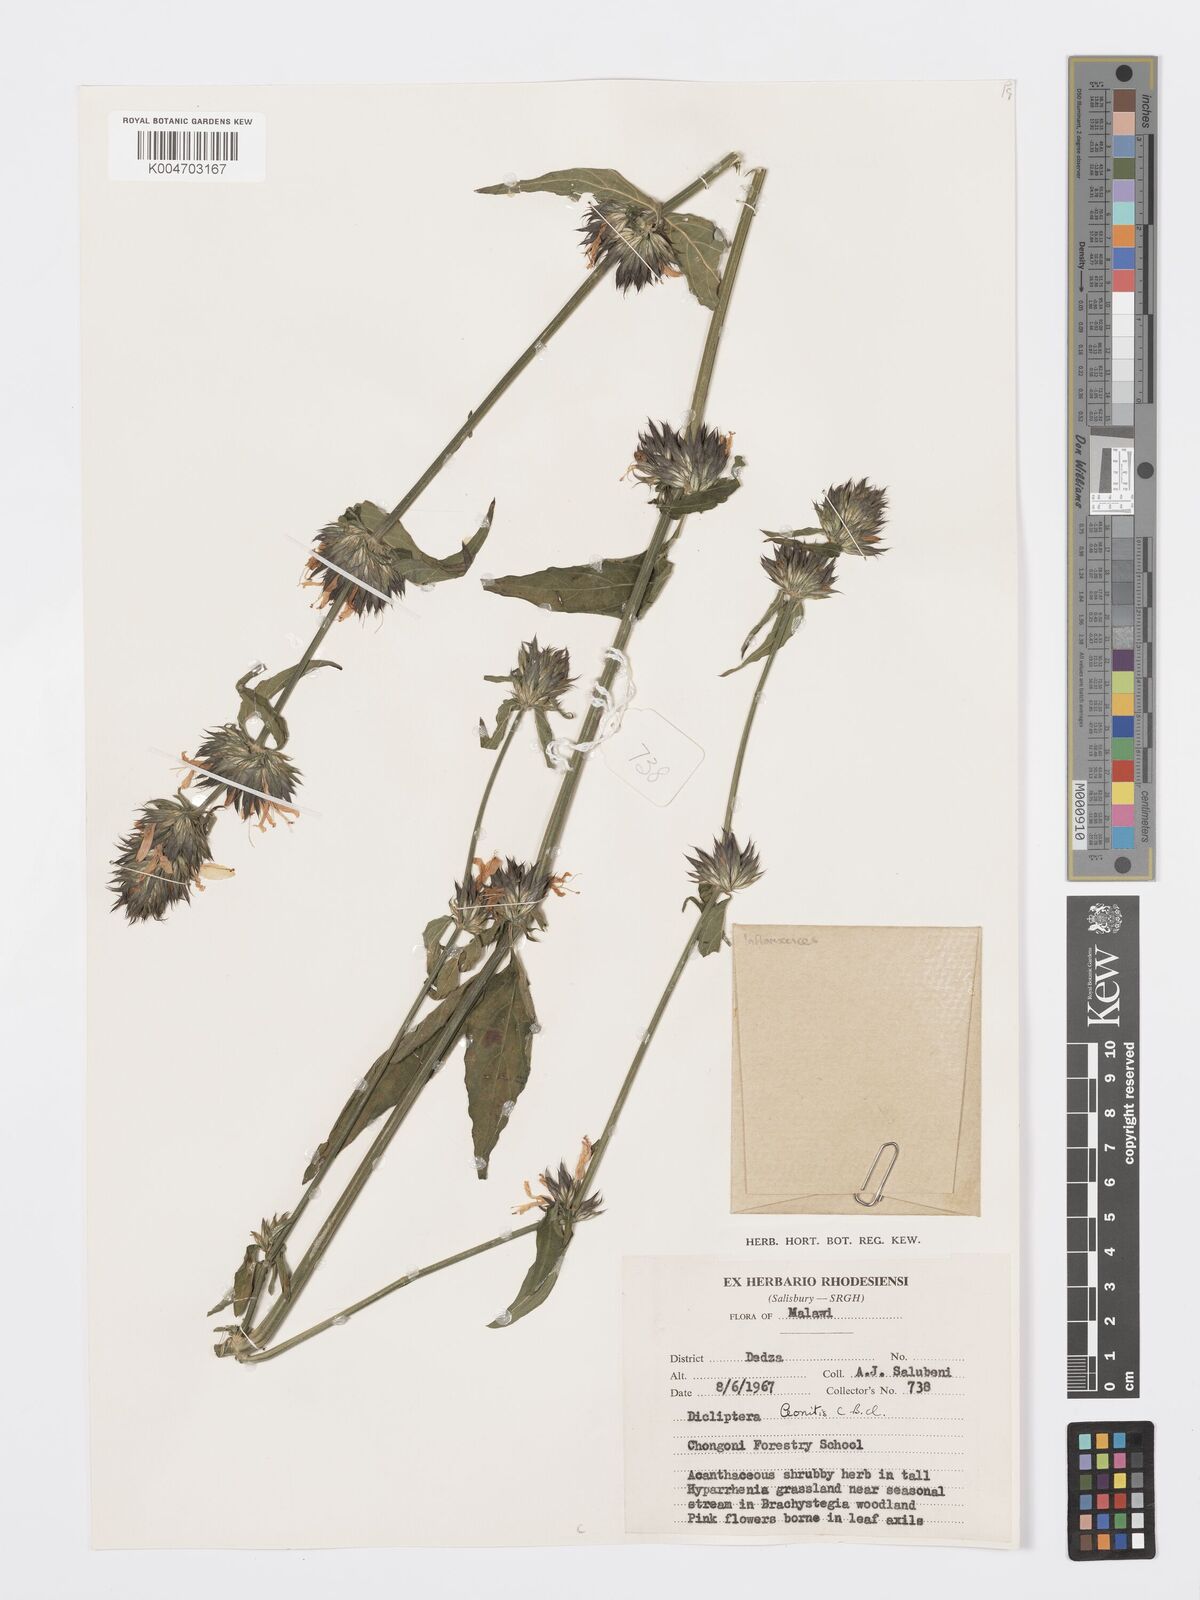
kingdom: Plantae
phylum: Tracheophyta
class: Magnoliopsida
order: Lamiales
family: Acanthaceae
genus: Dicliptera
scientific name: Dicliptera clinopodia
